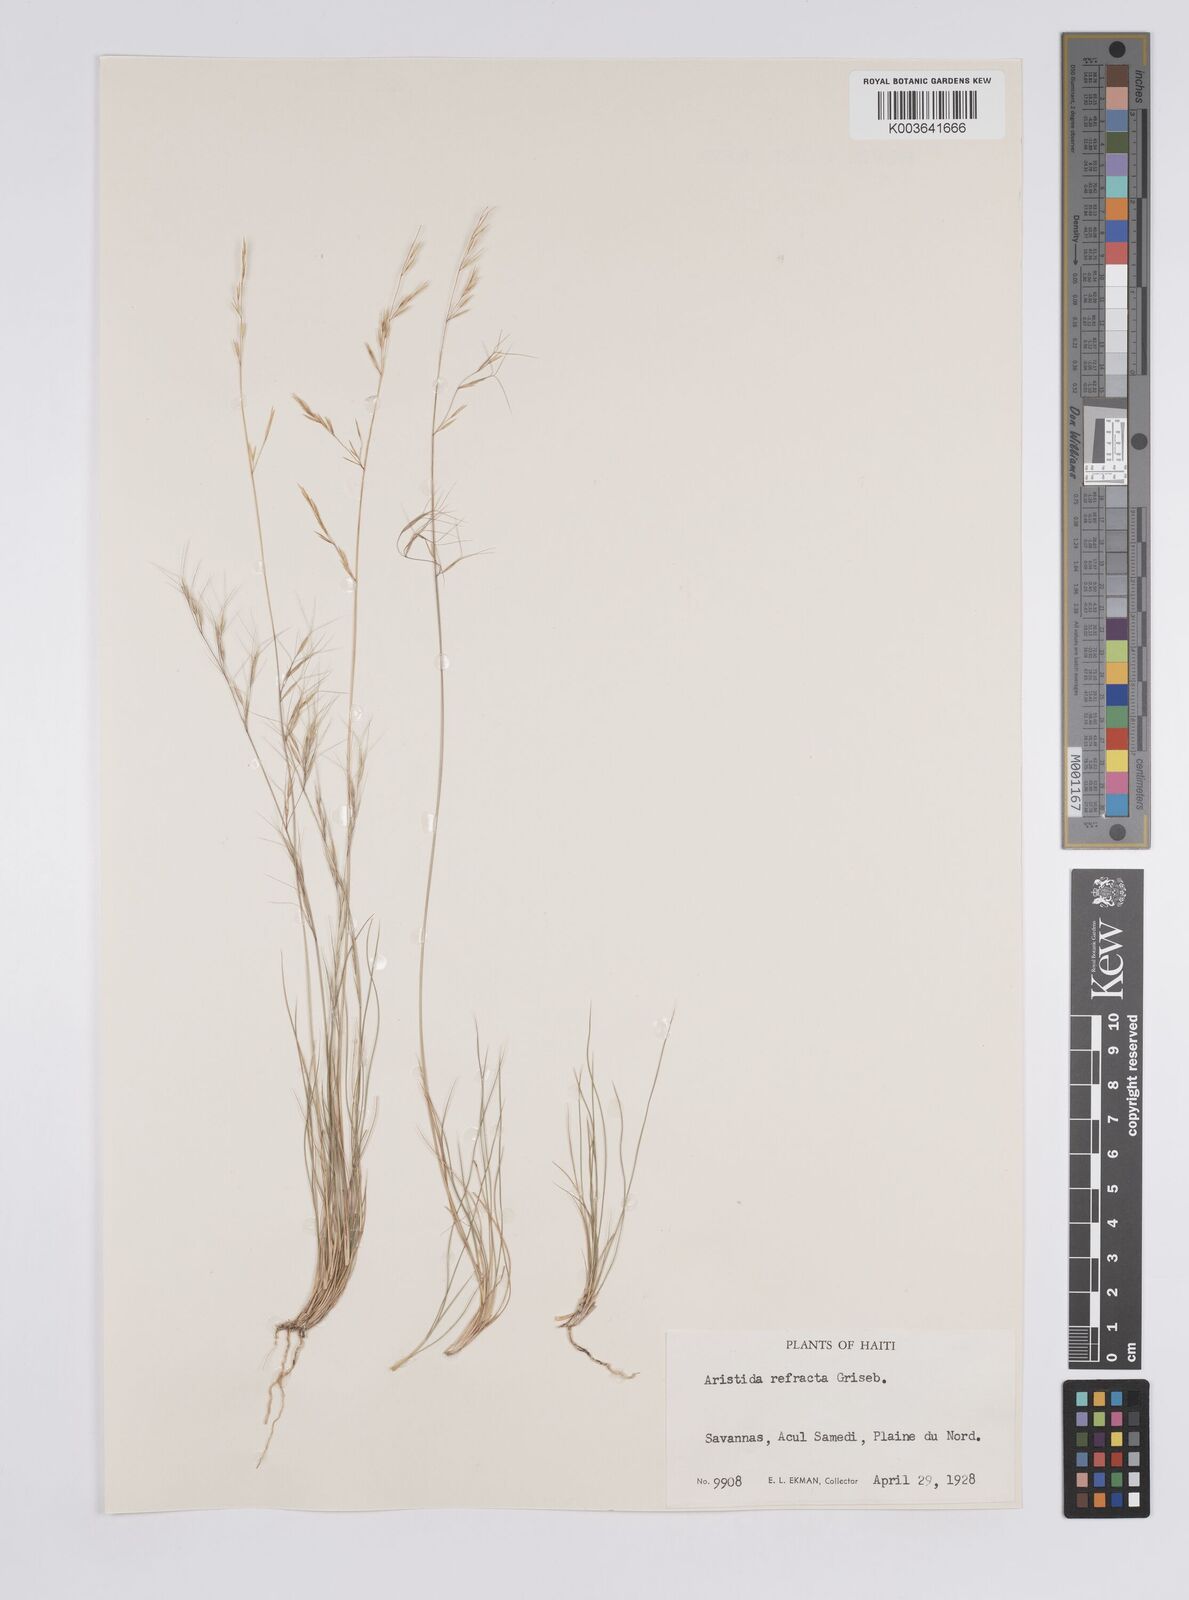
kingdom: Plantae
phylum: Tracheophyta
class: Liliopsida
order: Poales
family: Poaceae
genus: Aristida
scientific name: Aristida refracta
